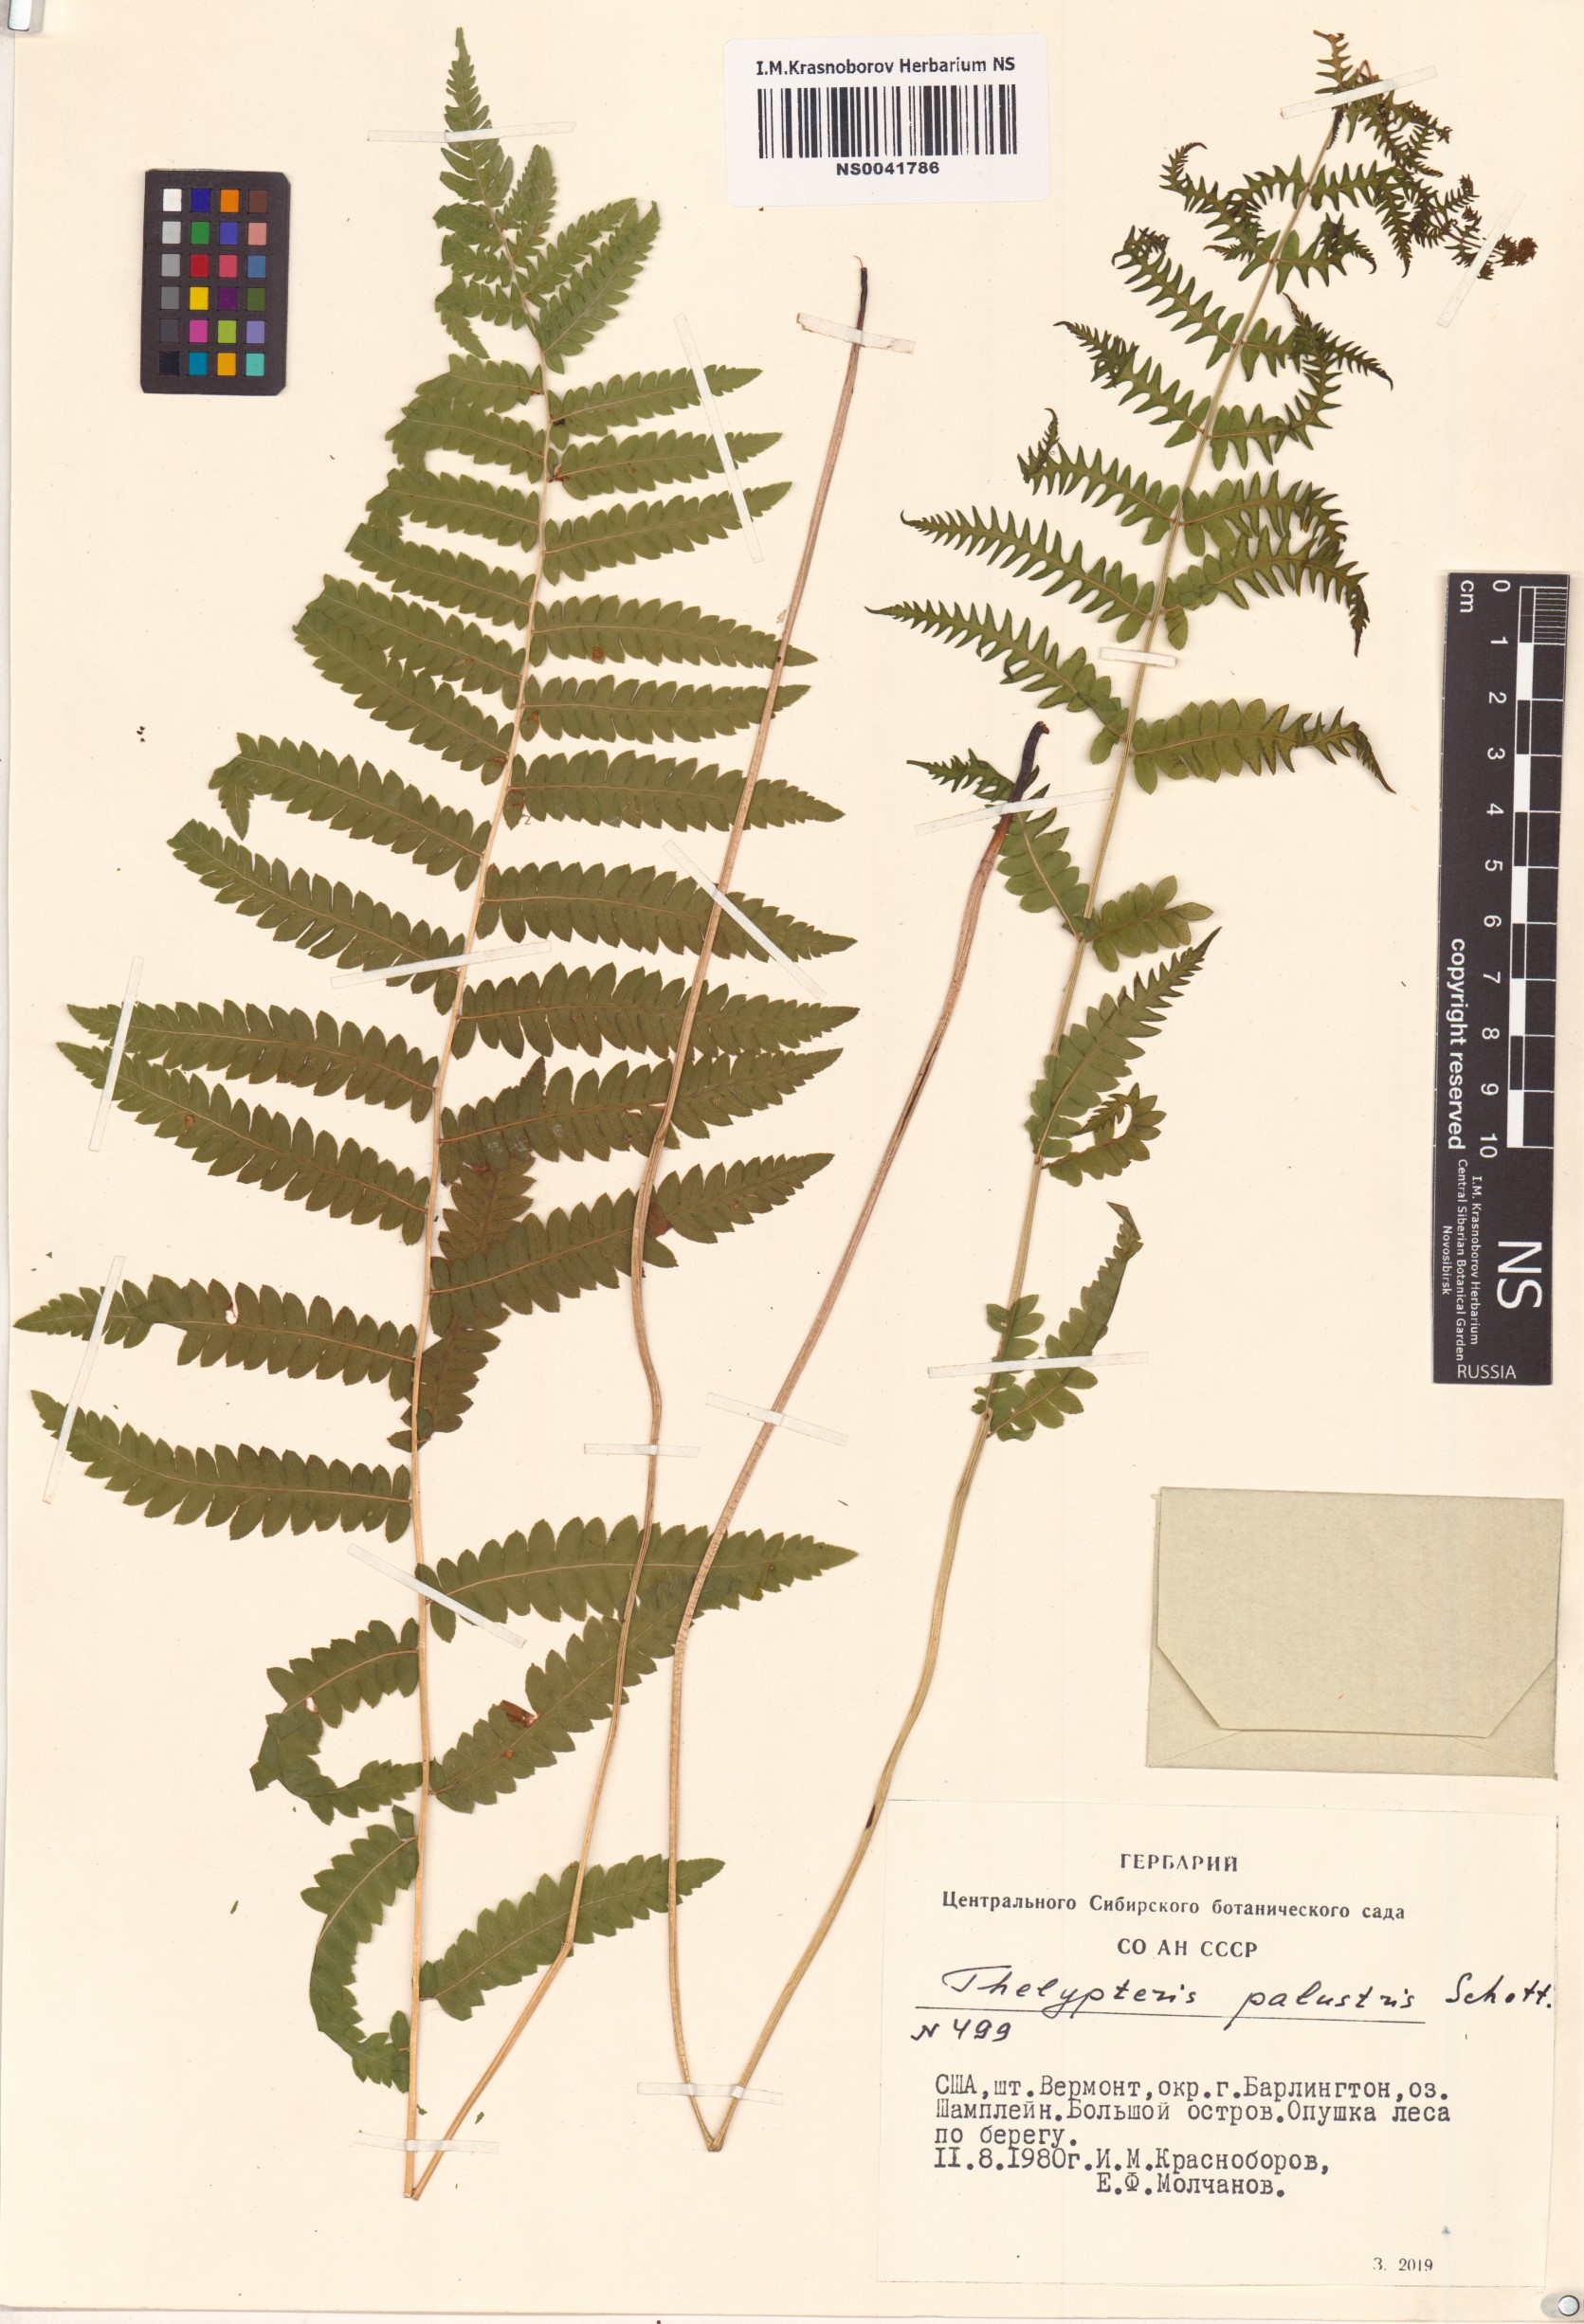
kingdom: Plantae
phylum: Tracheophyta
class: Polypodiopsida
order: Polypodiales
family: Thelypteridaceae
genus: Thelypteris
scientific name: Thelypteris palustris
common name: Marsh fern
